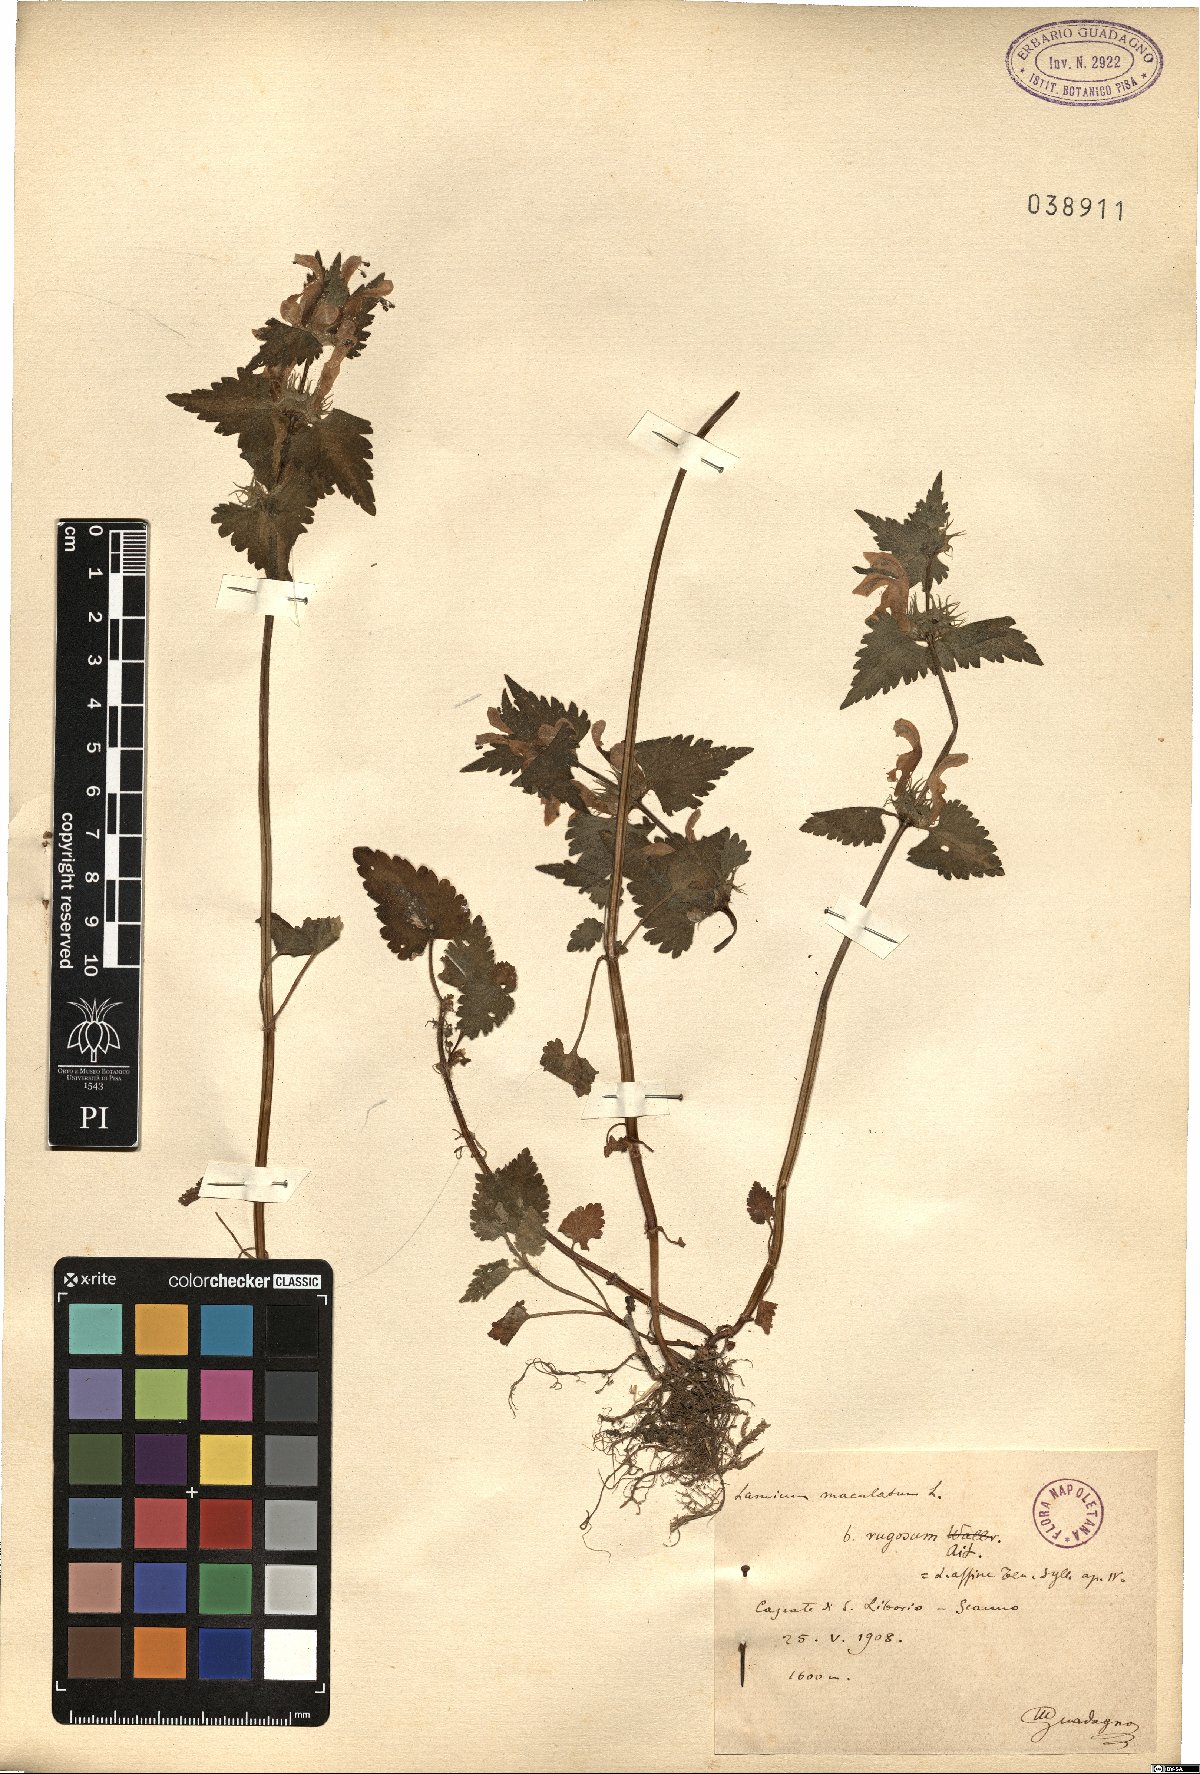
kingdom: Plantae
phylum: Tracheophyta
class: Magnoliopsida
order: Lamiales
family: Lamiaceae
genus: Lamium
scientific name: Lamium maculatum
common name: Spotted dead-nettle
